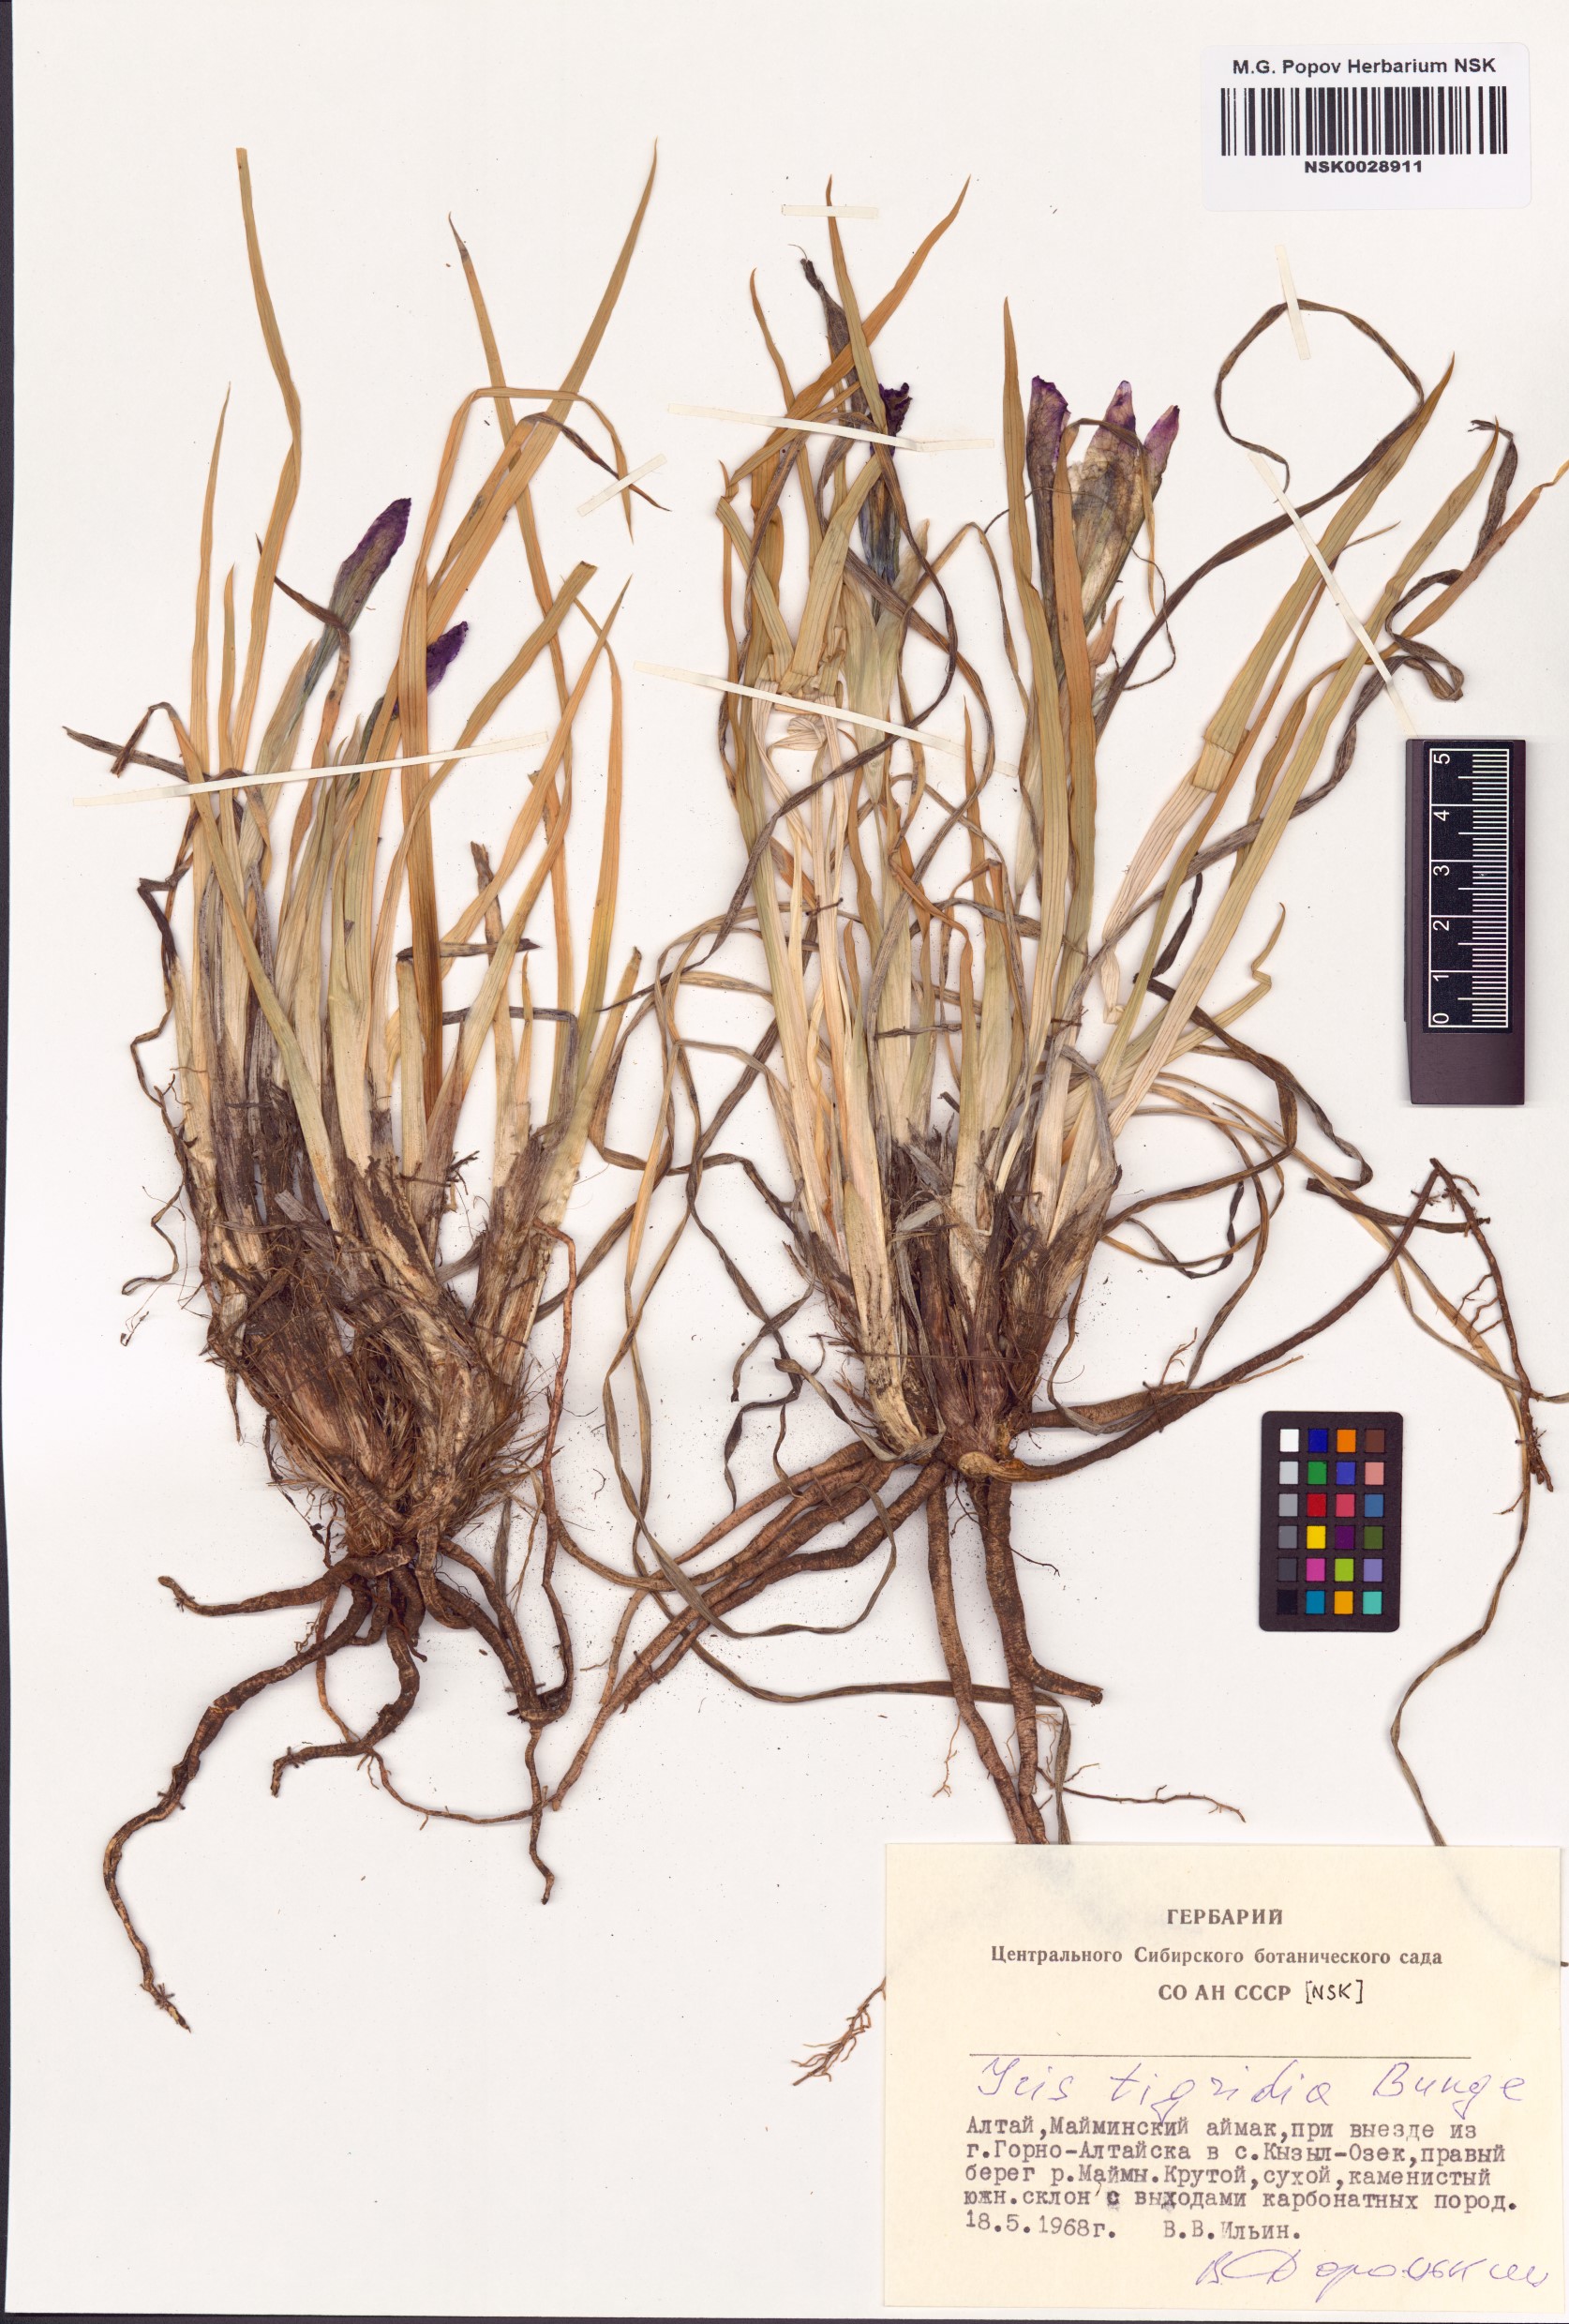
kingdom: Plantae
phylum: Tracheophyta
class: Liliopsida
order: Asparagales
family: Iridaceae
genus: Iris
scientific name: Iris tigridia
